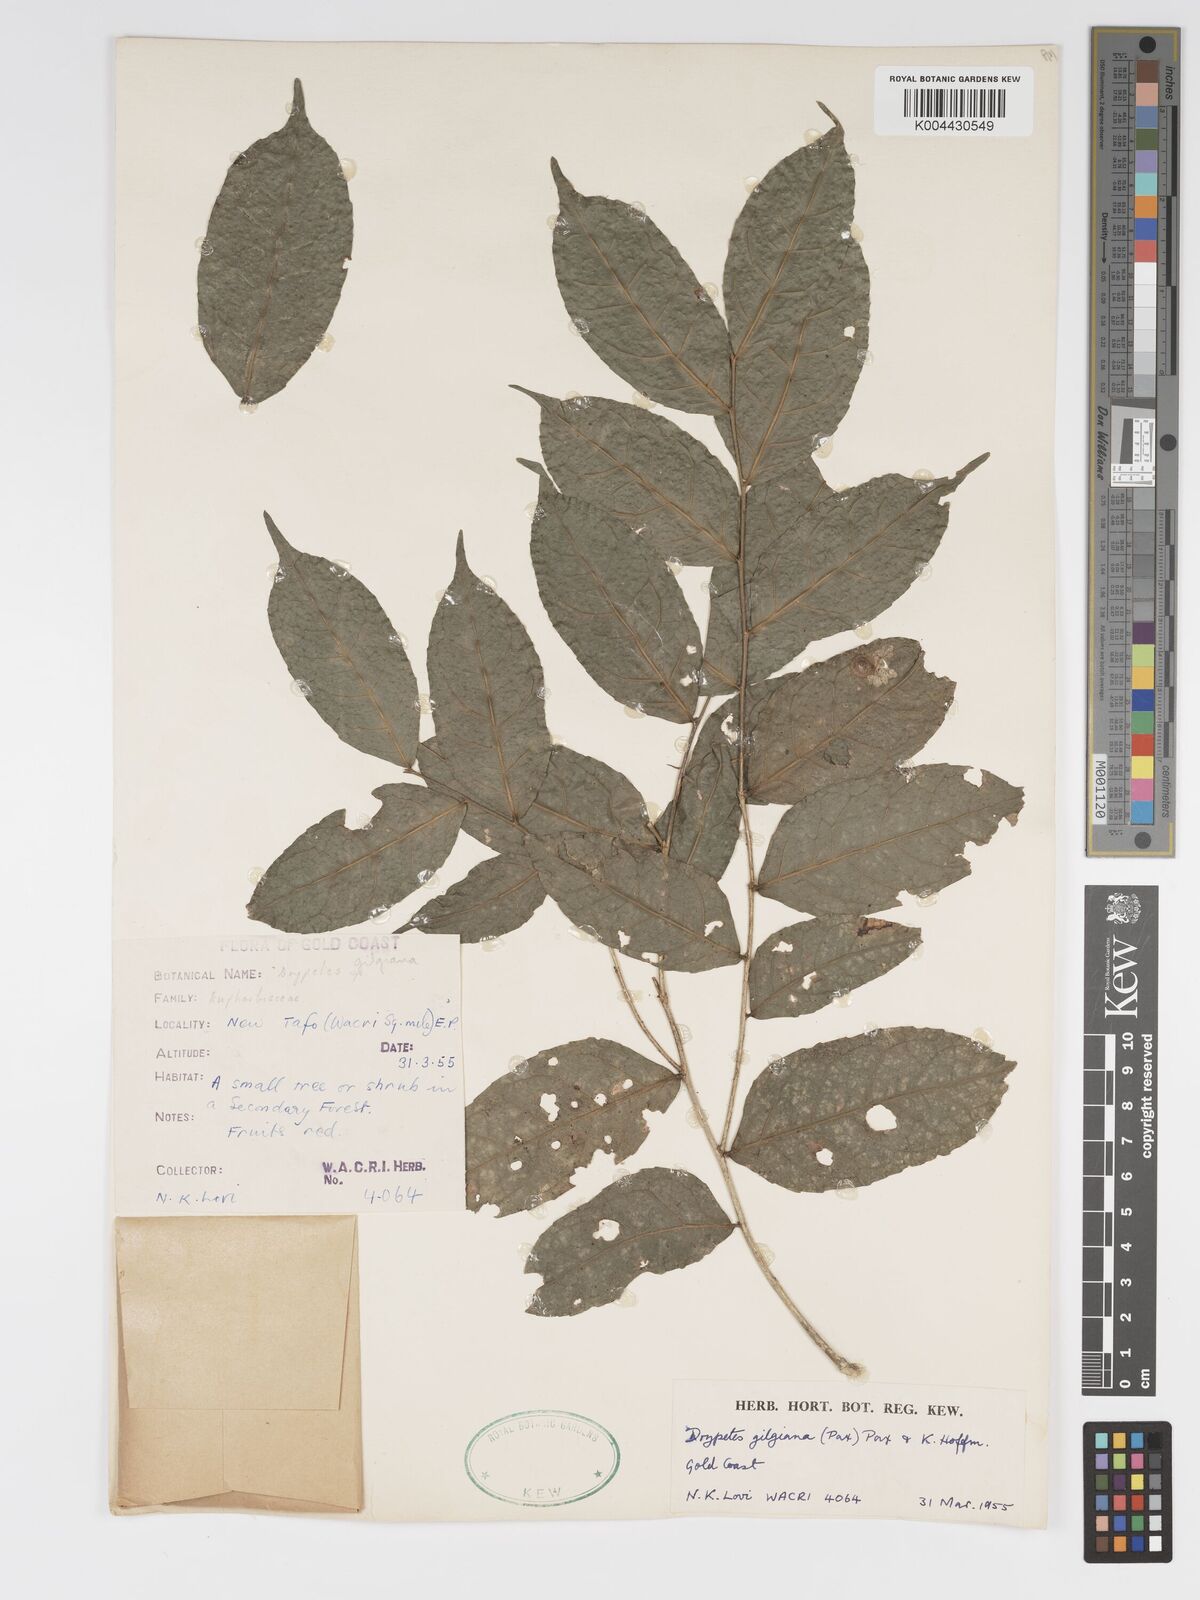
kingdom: Plantae
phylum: Tracheophyta
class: Magnoliopsida
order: Malpighiales
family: Putranjivaceae
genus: Drypetes
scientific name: Drypetes gilgiana
